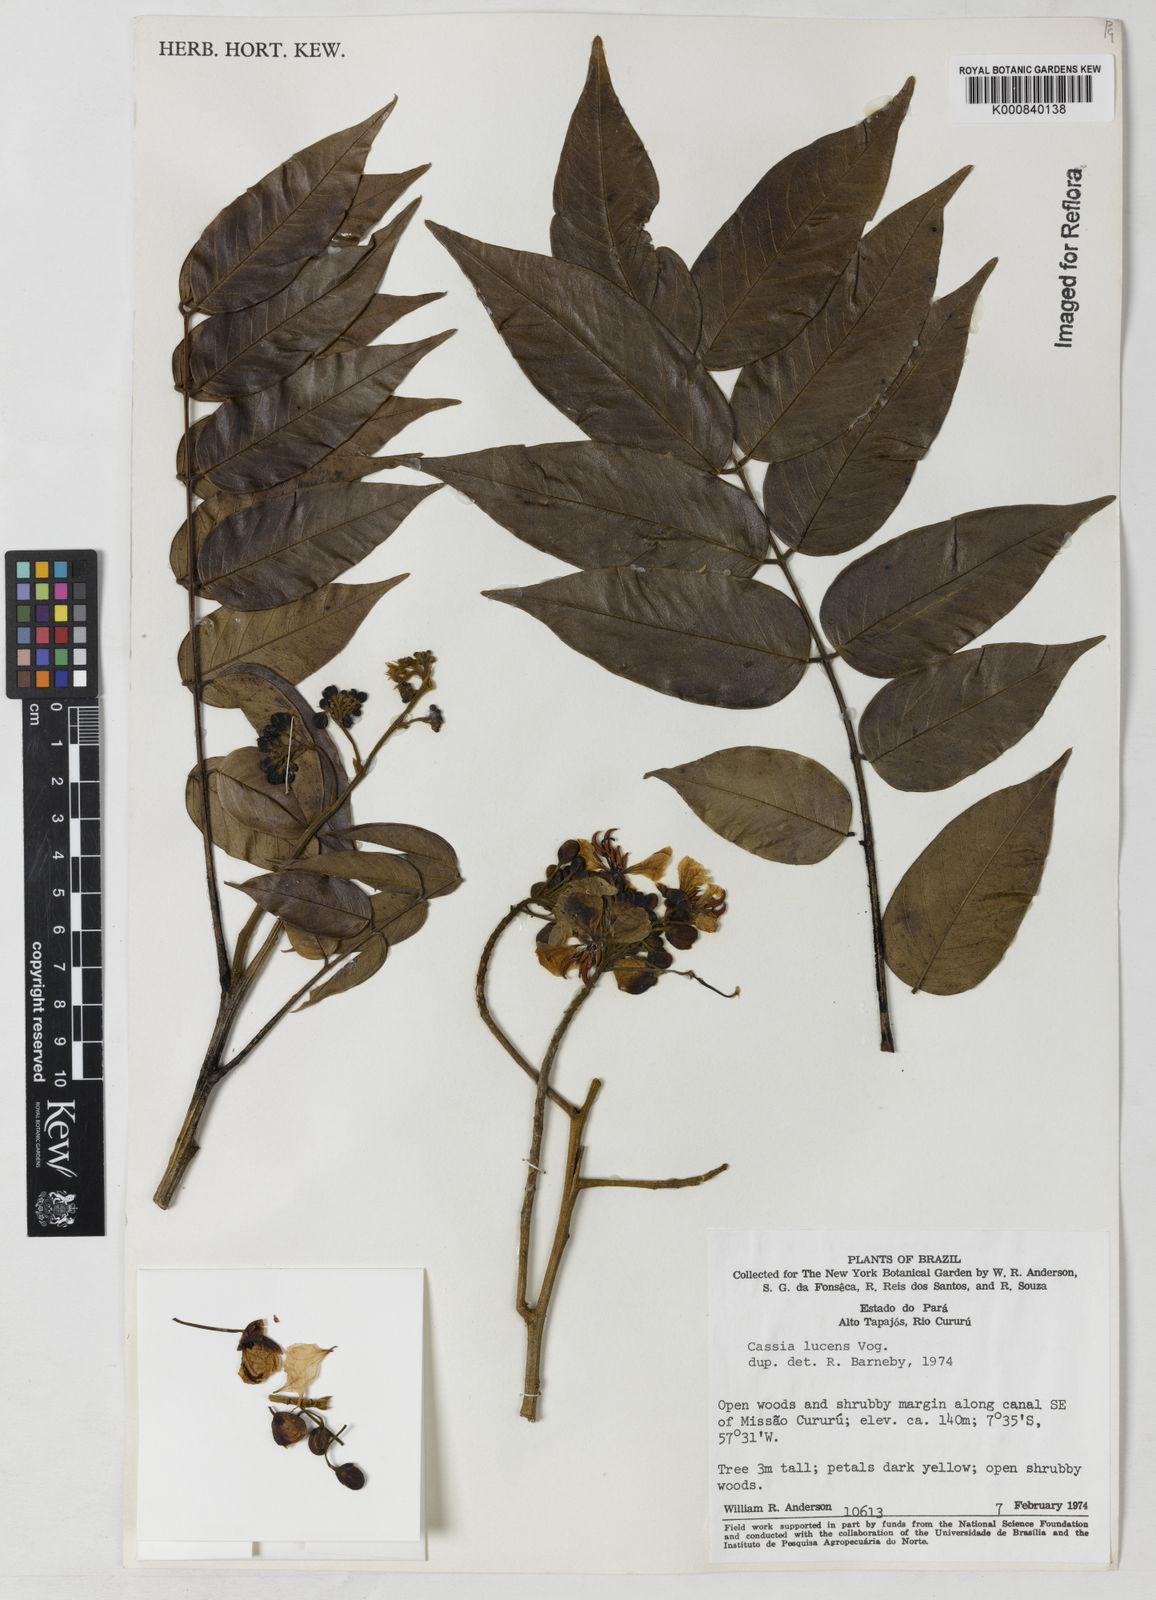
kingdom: Plantae
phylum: Tracheophyta
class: Magnoliopsida
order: Fabales
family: Fabaceae
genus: Senna
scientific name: Senna silvestris
